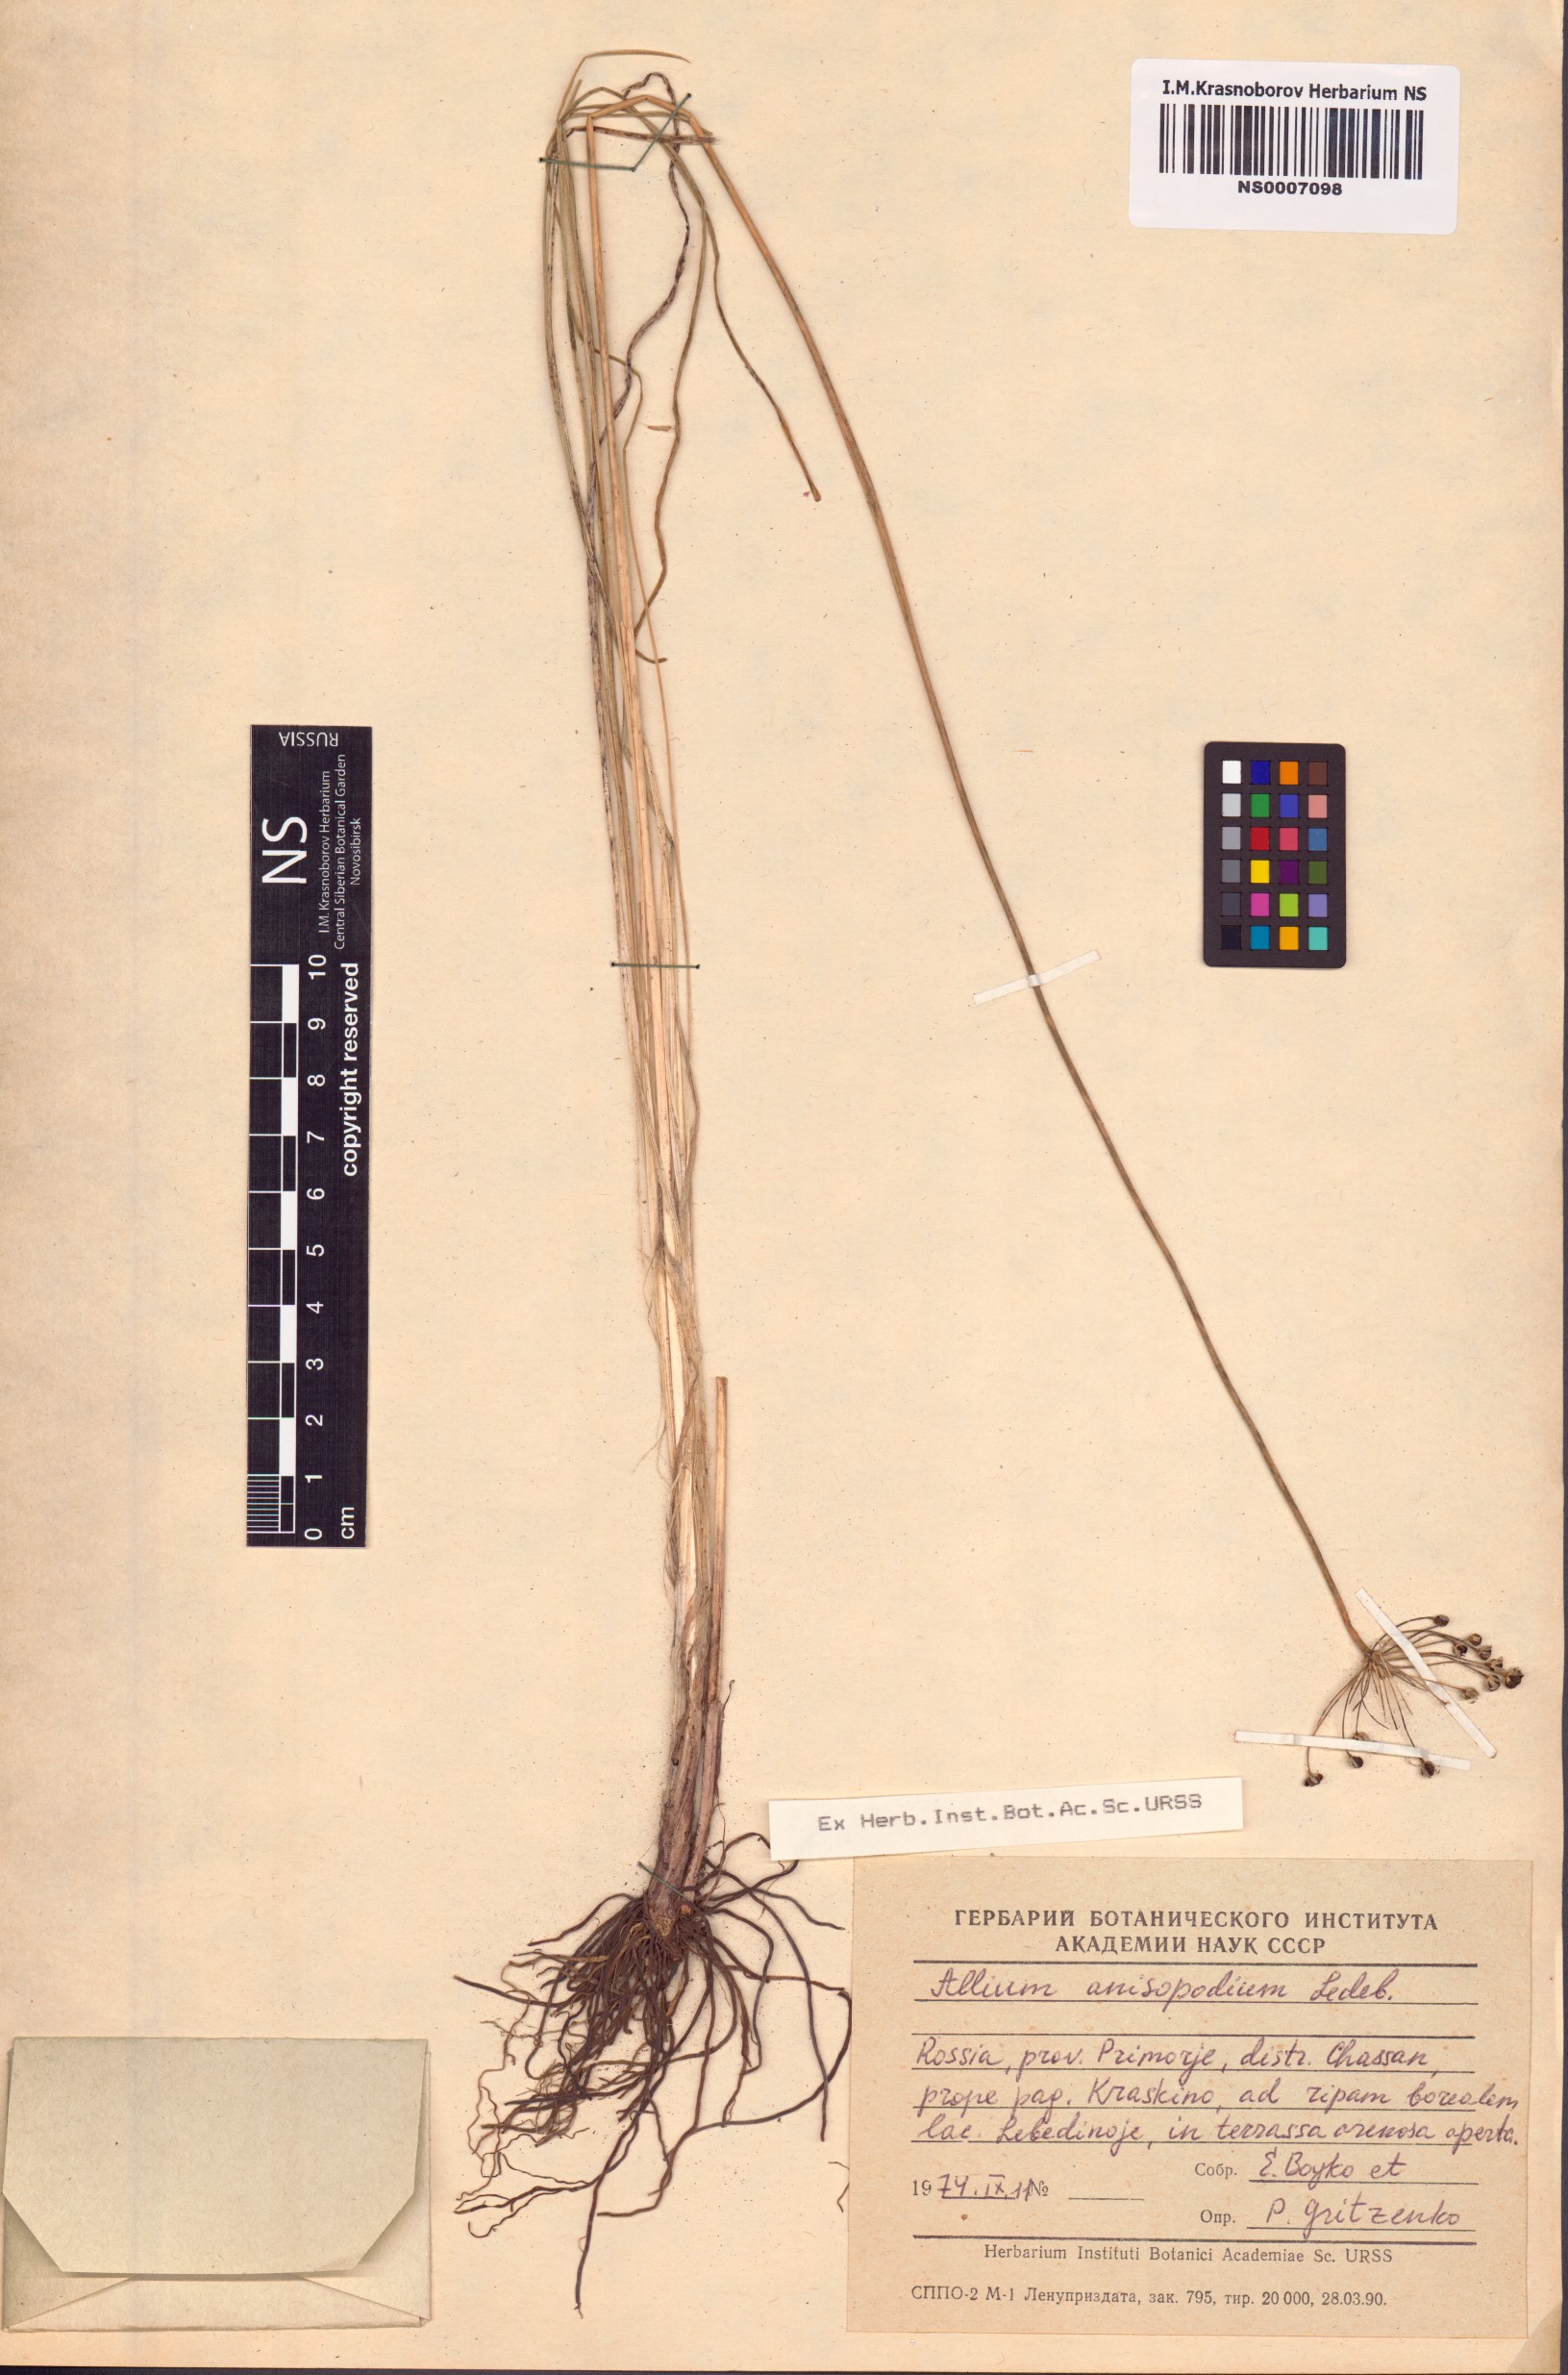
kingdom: Plantae
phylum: Tracheophyta
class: Liliopsida
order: Asparagales
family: Amaryllidaceae
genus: Allium
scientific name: Allium anisopodium
